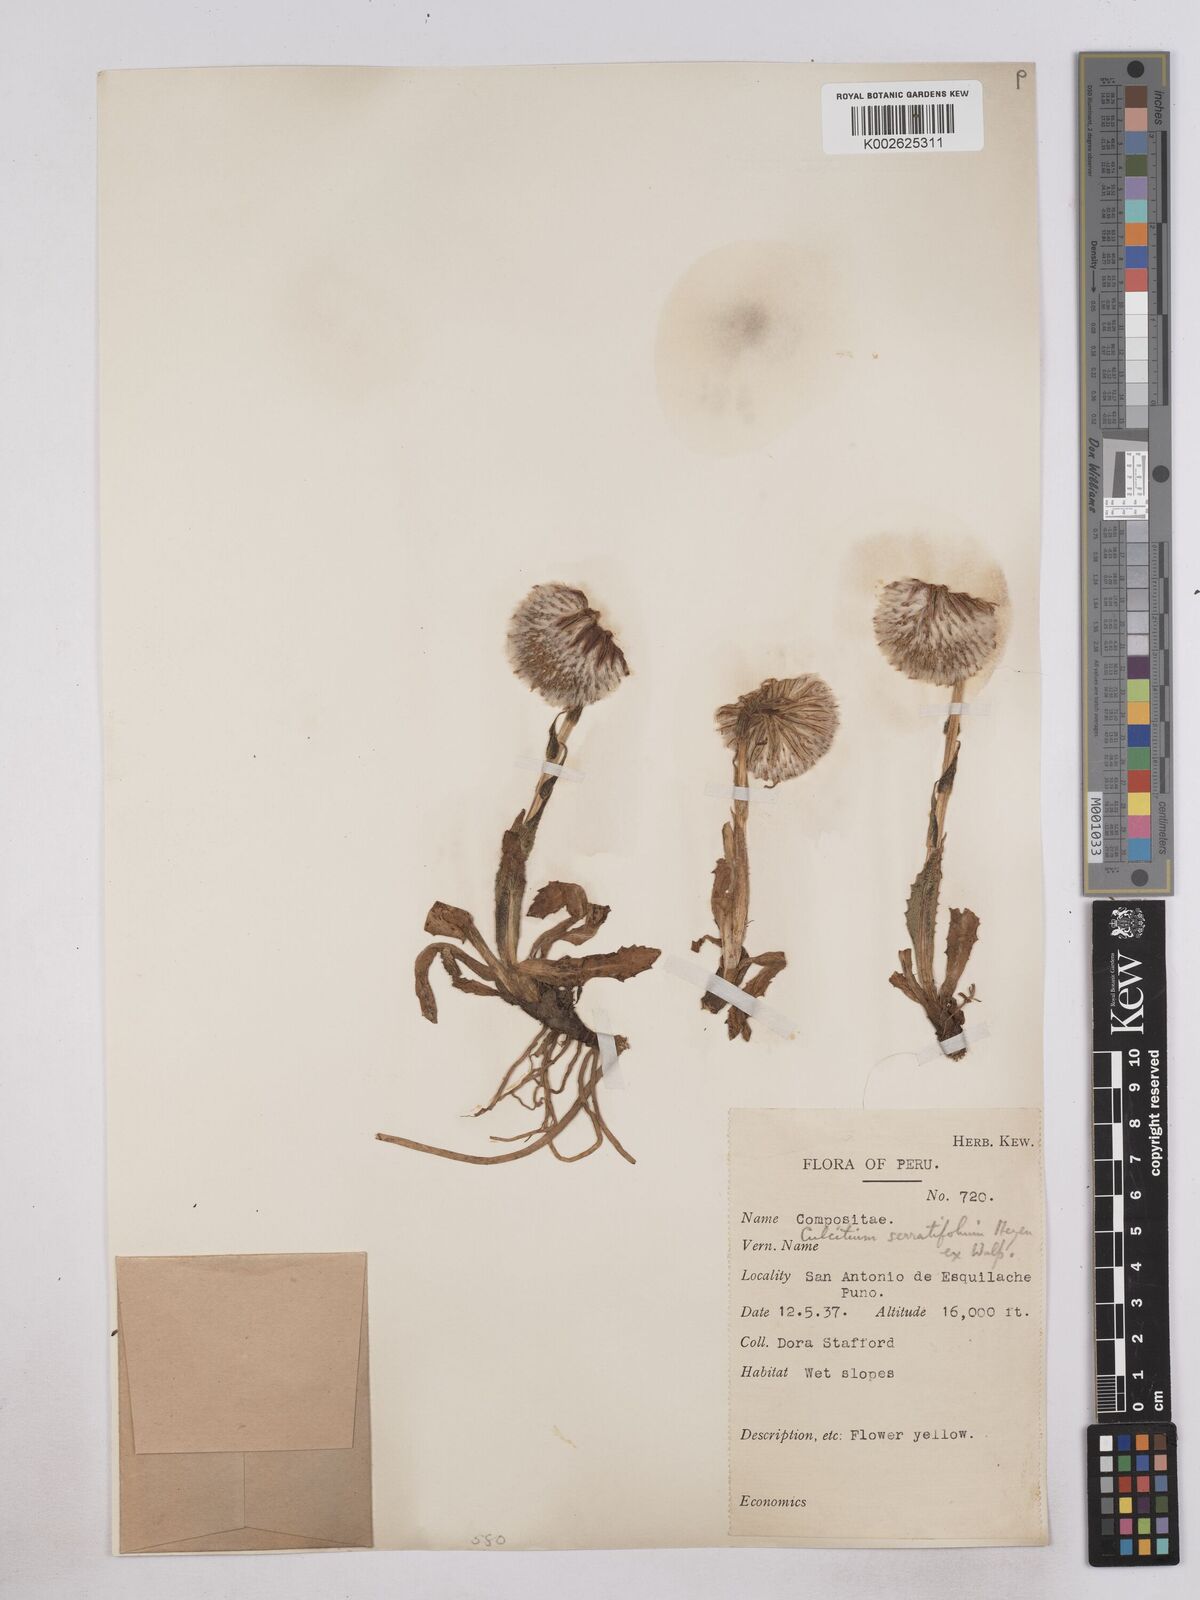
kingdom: Plantae
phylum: Tracheophyta
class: Magnoliopsida
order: Asterales
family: Asteraceae
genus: Senecio
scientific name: Senecio serratifolius
